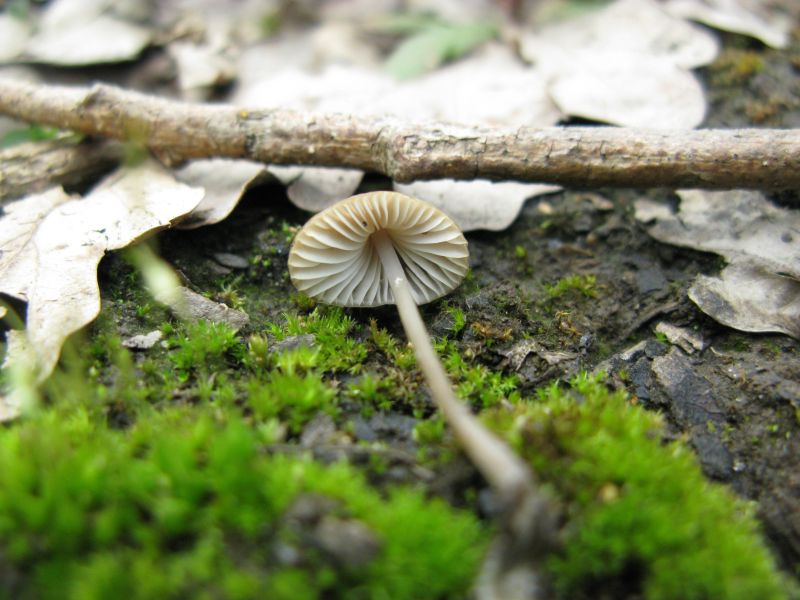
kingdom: Fungi
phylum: Basidiomycota
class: Agaricomycetes
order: Agaricales
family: Mycenaceae
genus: Mycena
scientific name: Mycena vitilis
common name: blankstokket huesvamp
